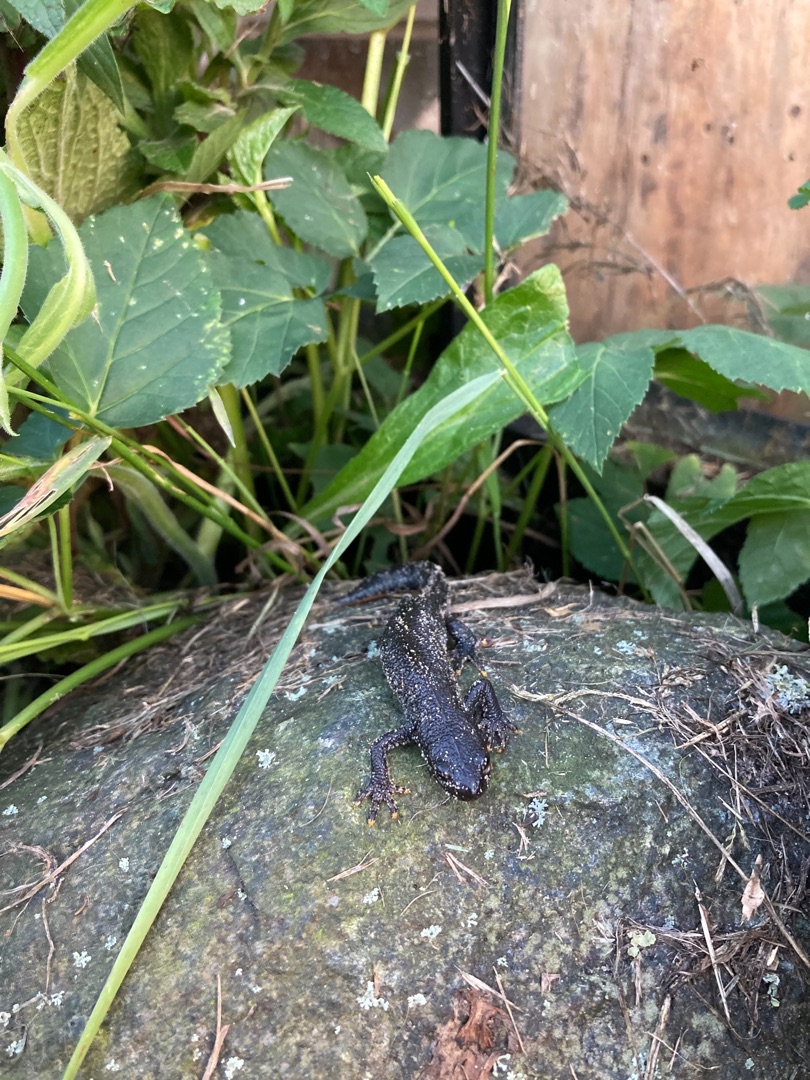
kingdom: Animalia
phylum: Chordata
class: Amphibia
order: Caudata
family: Salamandridae
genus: Triturus
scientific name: Triturus cristatus
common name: Stor vandsalamander
